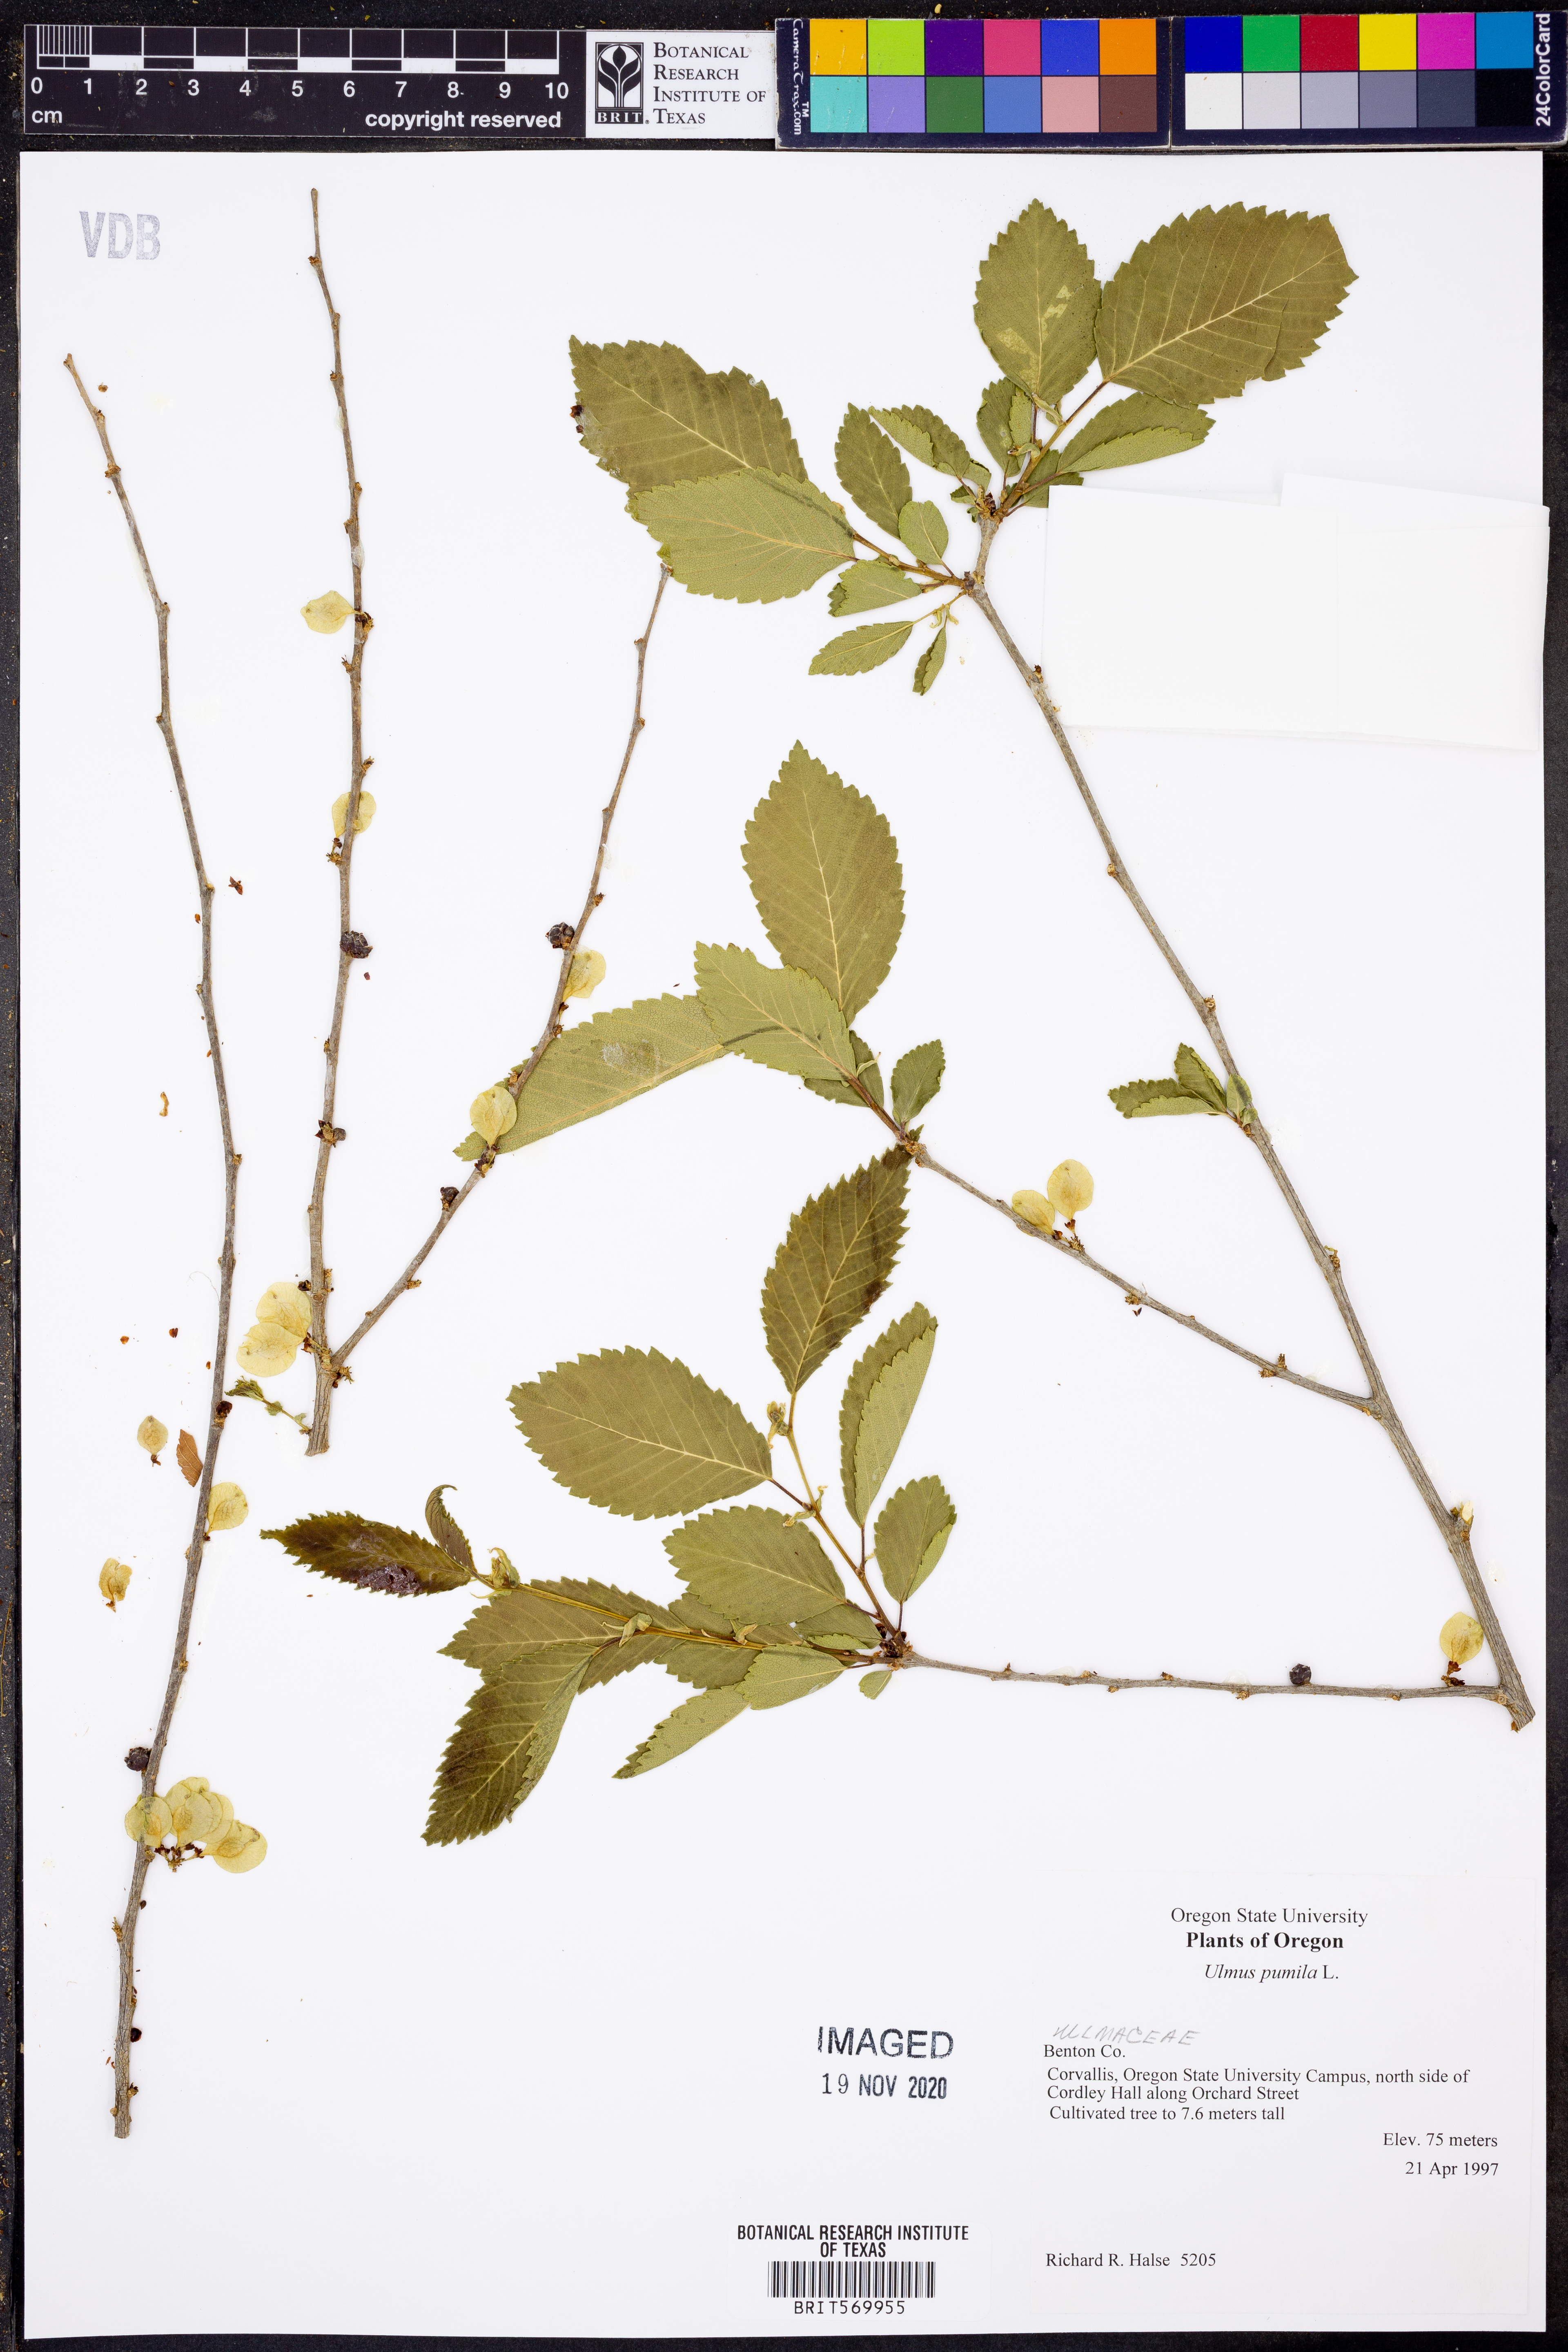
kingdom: Plantae
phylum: Tracheophyta
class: Magnoliopsida
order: Rosales
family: Ulmaceae
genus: Ulmus
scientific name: Ulmus pumila
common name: Siberian elm
